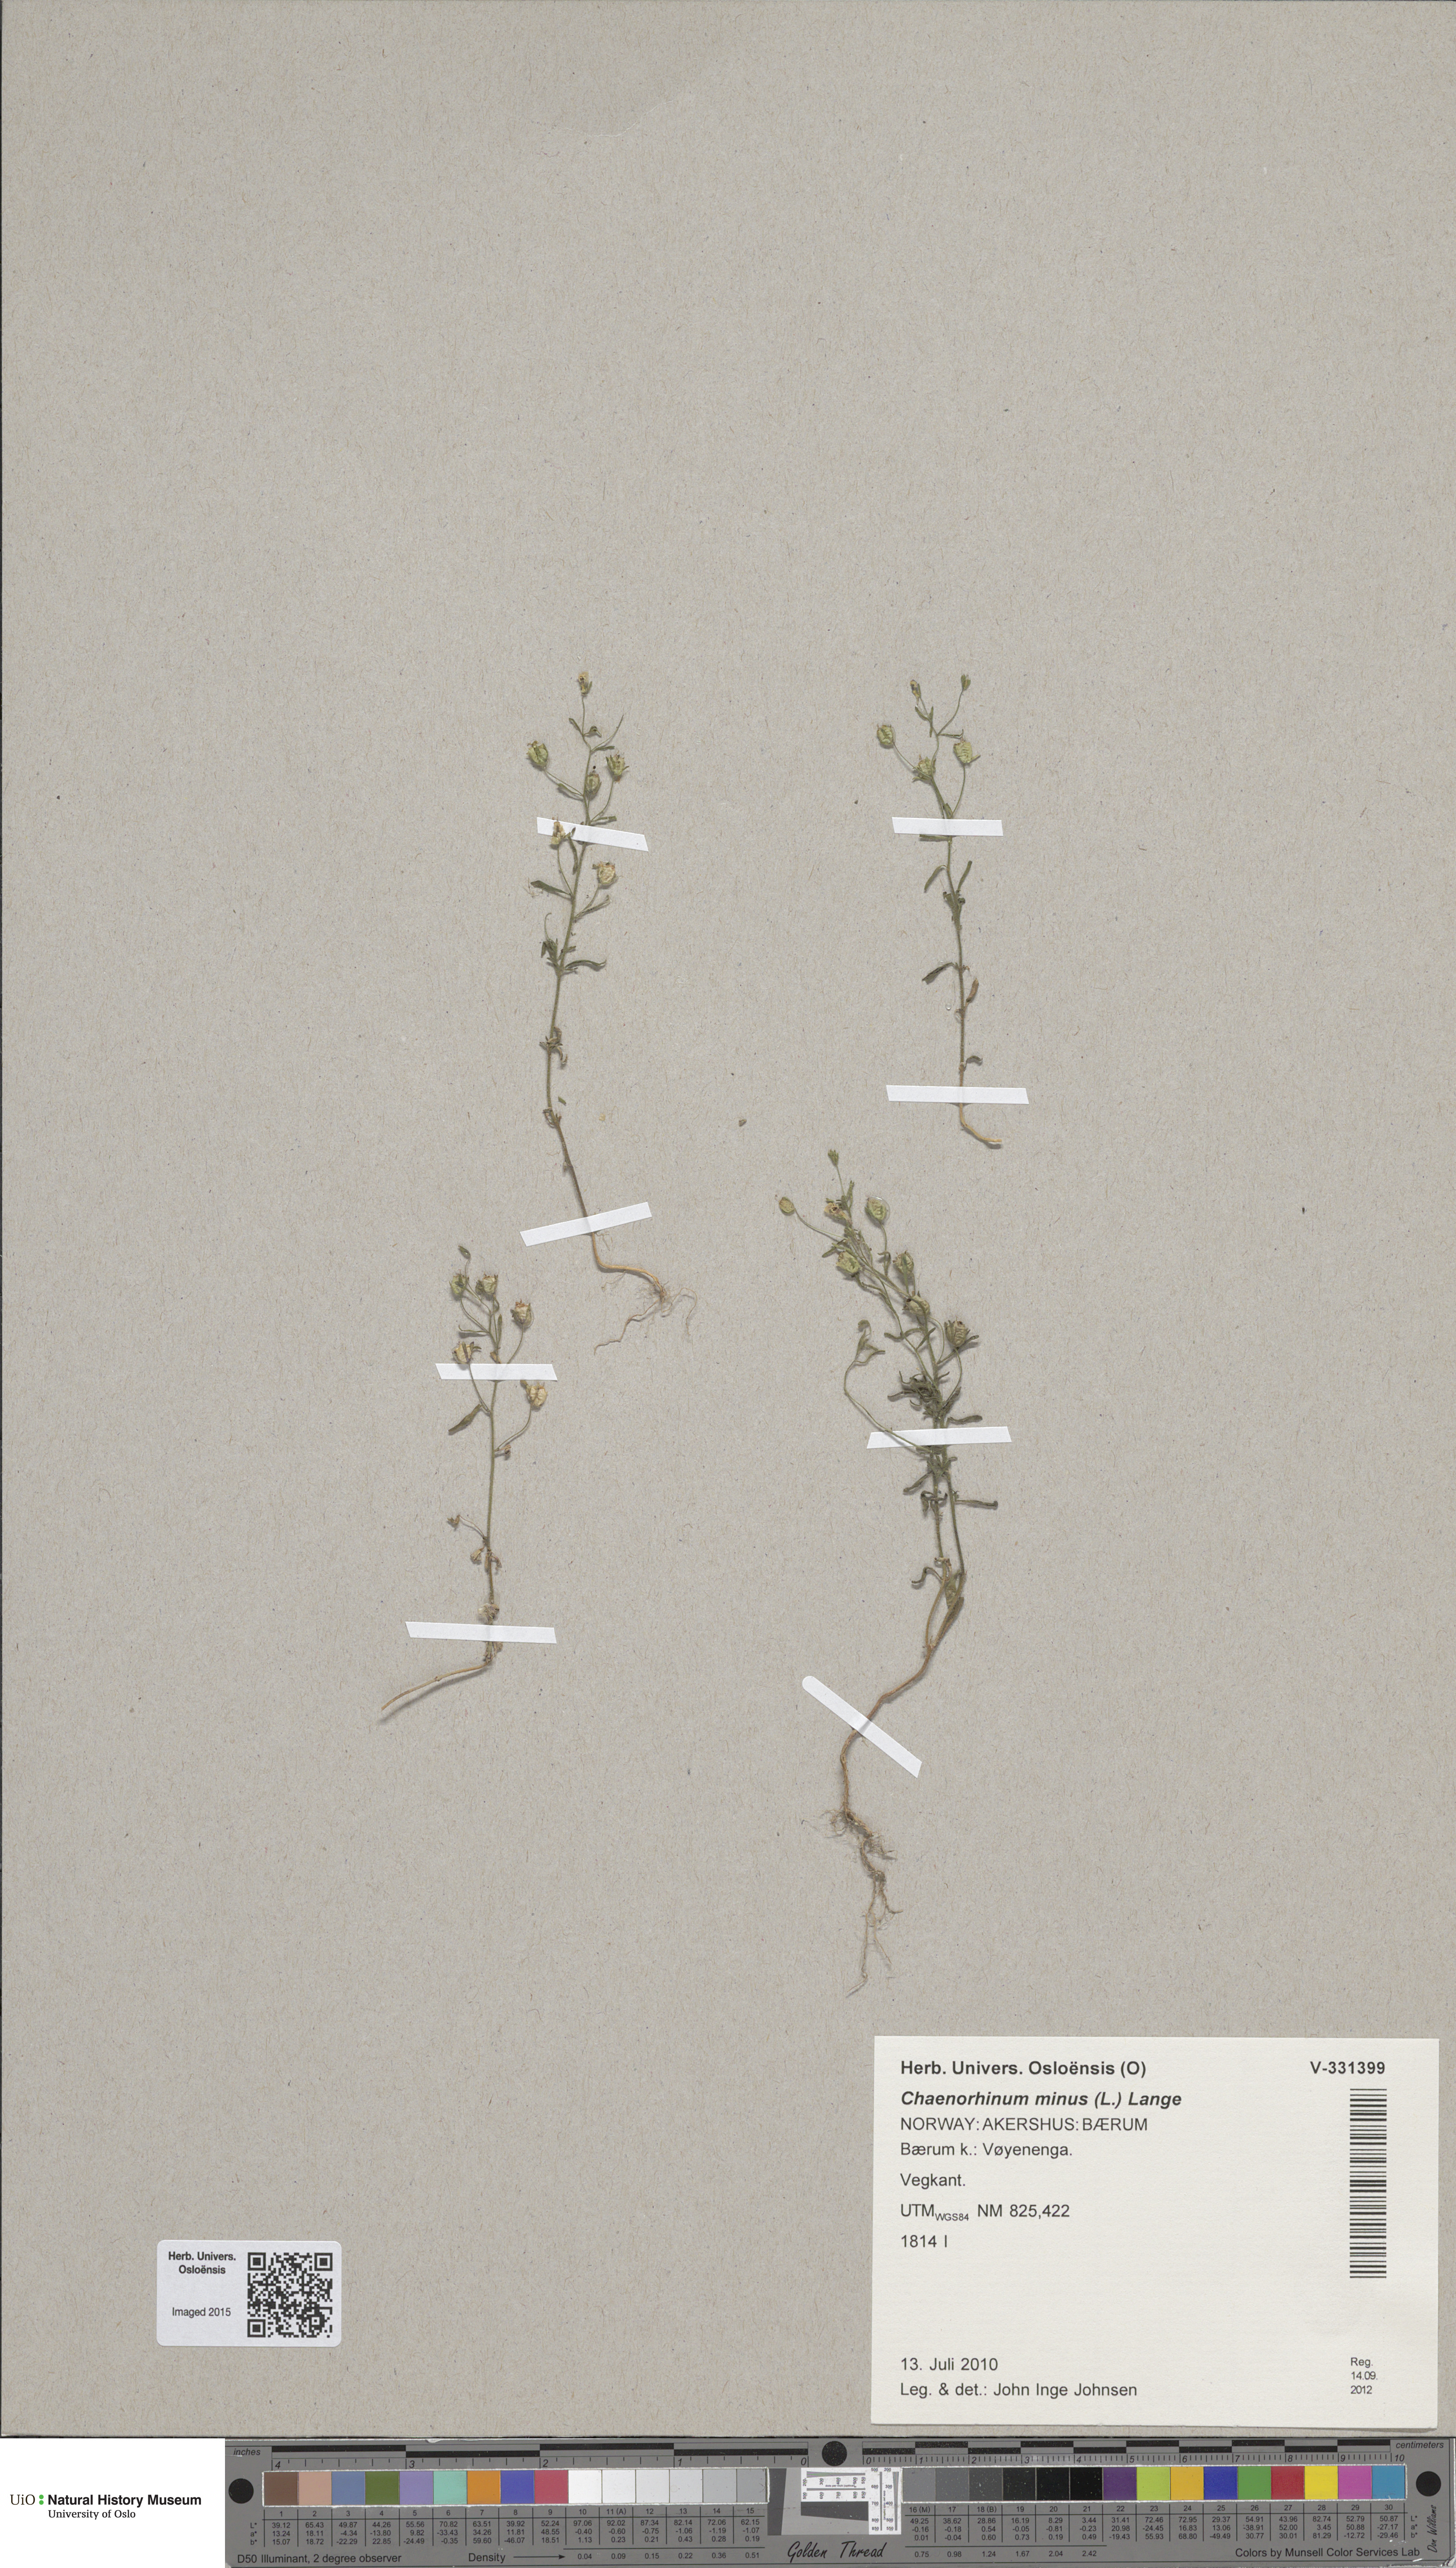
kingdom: Plantae
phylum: Tracheophyta
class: Magnoliopsida
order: Lamiales
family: Plantaginaceae
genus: Chaenorhinum
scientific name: Chaenorhinum minus
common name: Dwarf snapdragon
